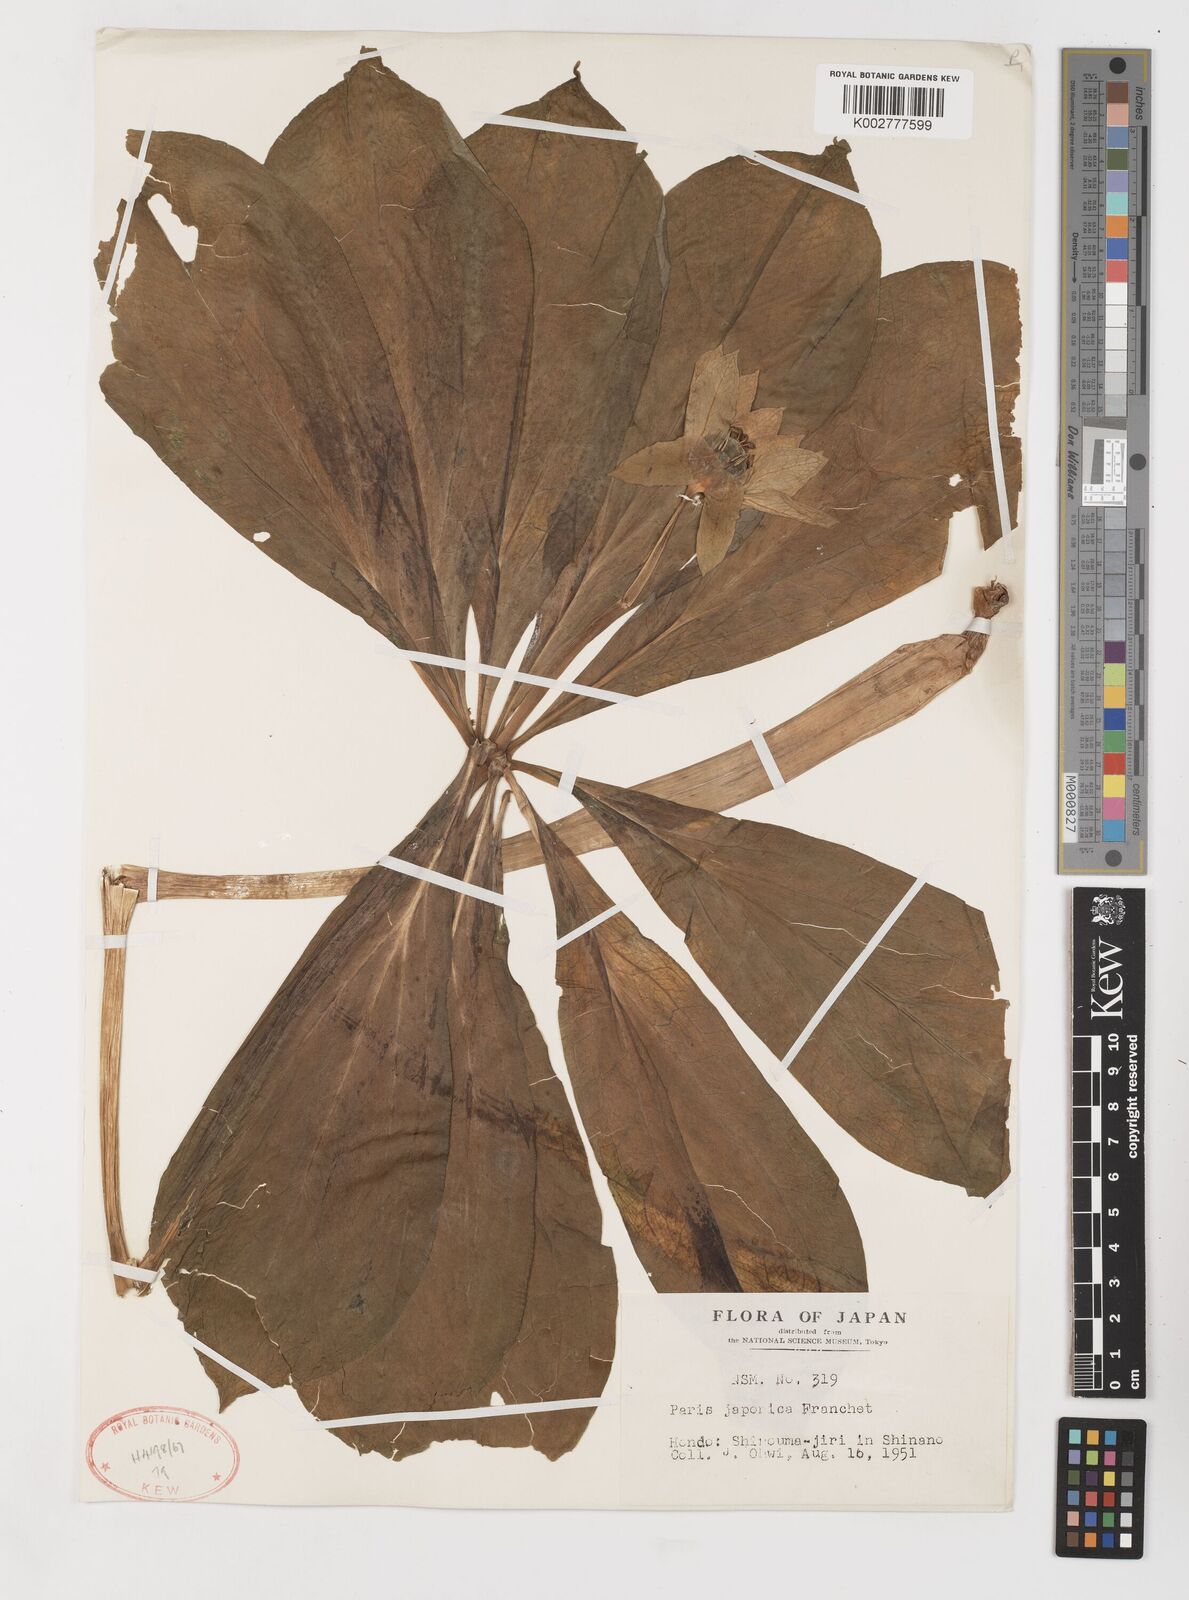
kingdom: Plantae
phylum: Tracheophyta
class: Liliopsida
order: Liliales
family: Melanthiaceae
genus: Paris
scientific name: Paris japonica
